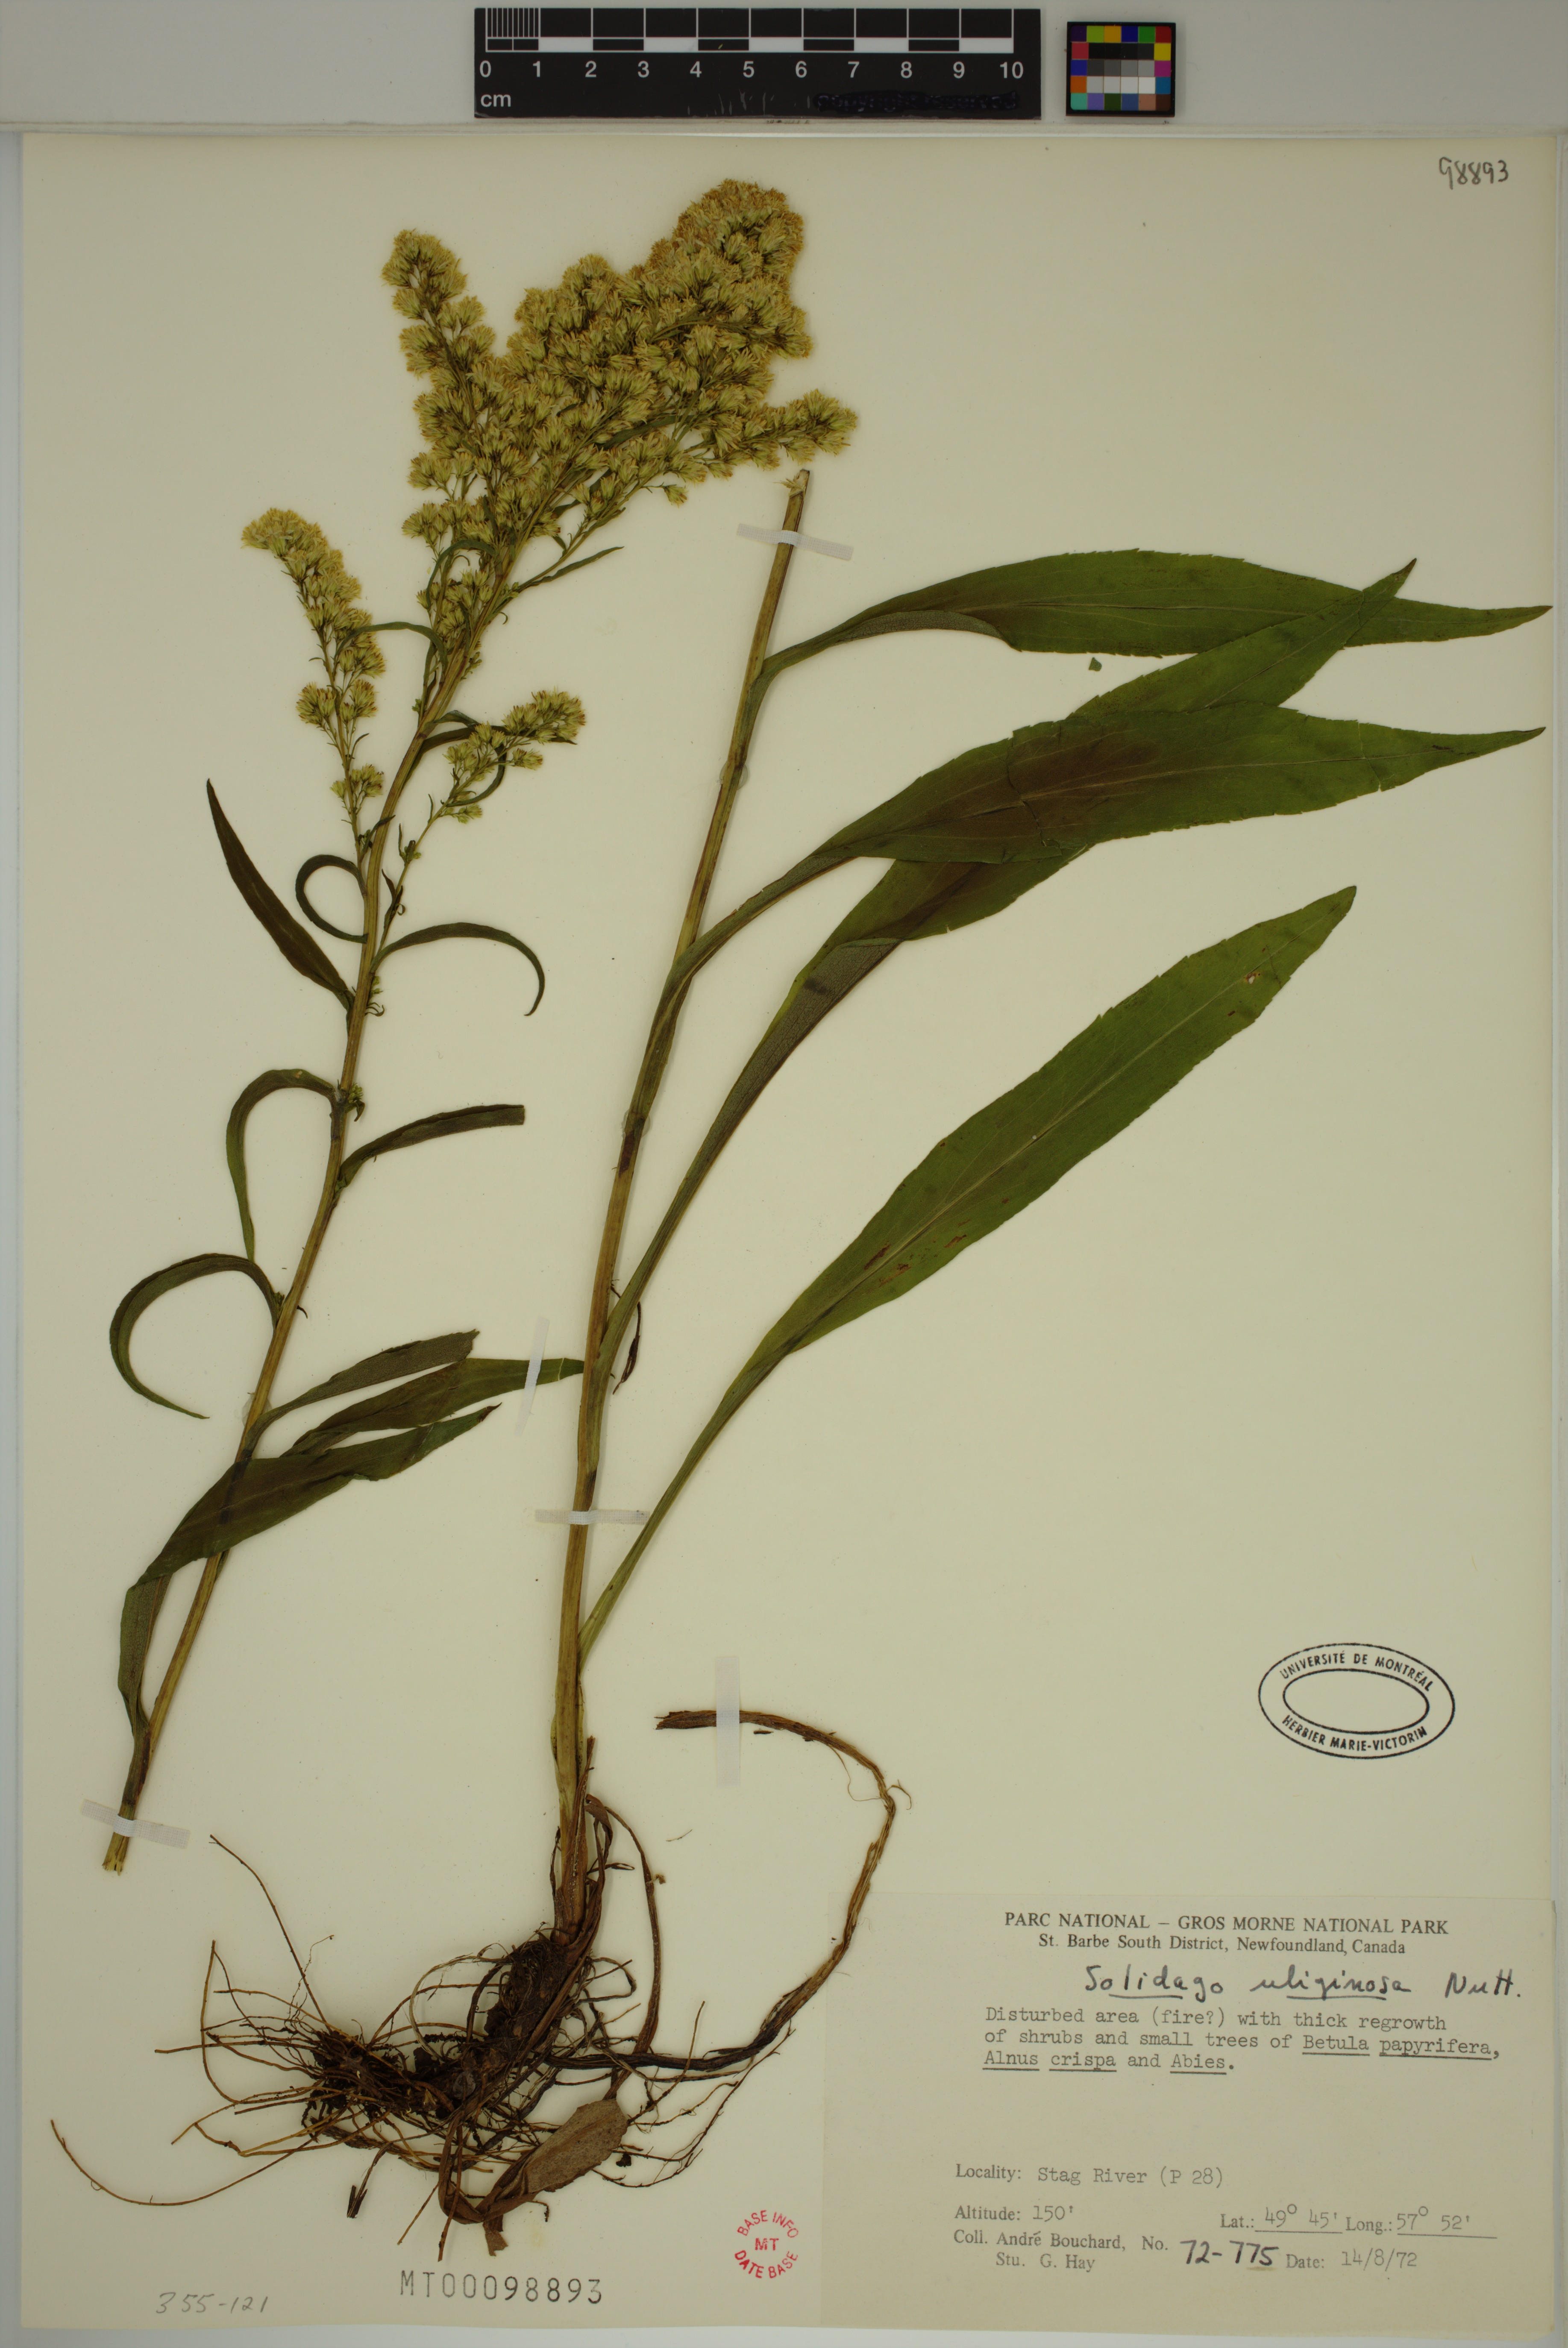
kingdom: Plantae
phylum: Tracheophyta
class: Magnoliopsida
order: Asterales
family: Asteraceae
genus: Solidago
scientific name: Solidago uliginosa
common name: Bog goldenrod
